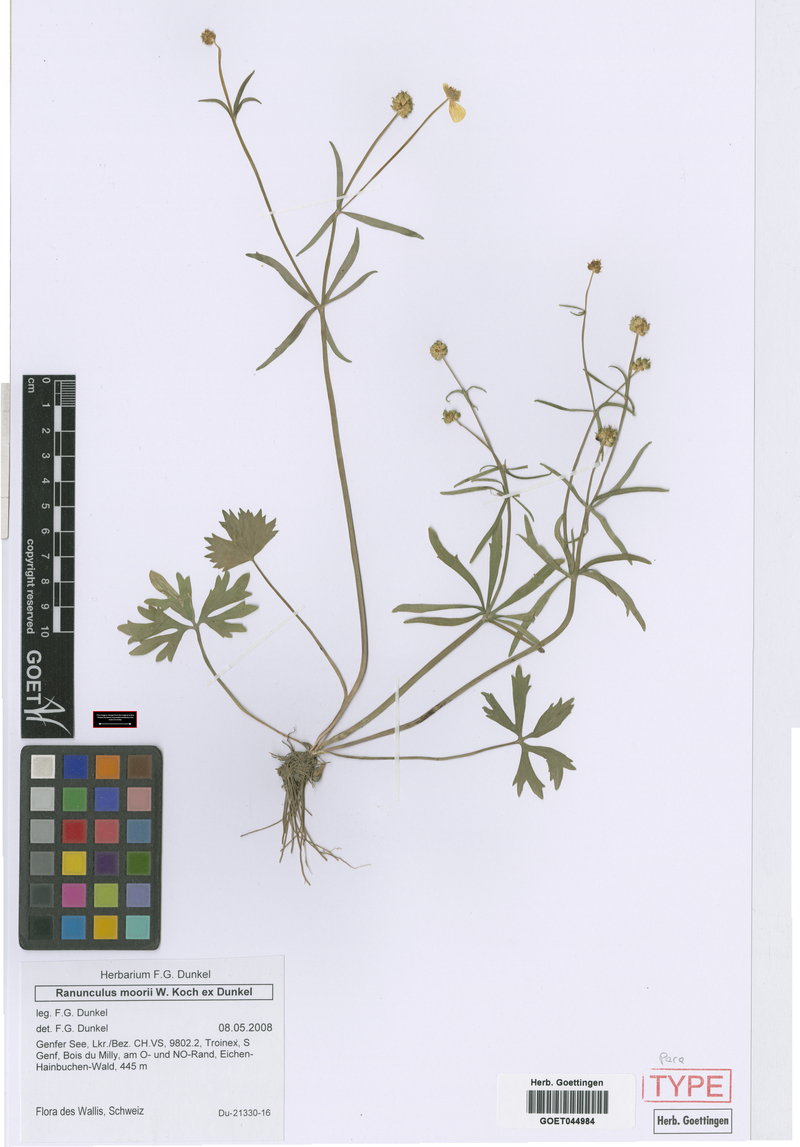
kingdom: Plantae
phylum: Tracheophyta
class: Magnoliopsida
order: Ranunculales
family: Ranunculaceae
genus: Ranunculus
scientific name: Ranunculus moorii
